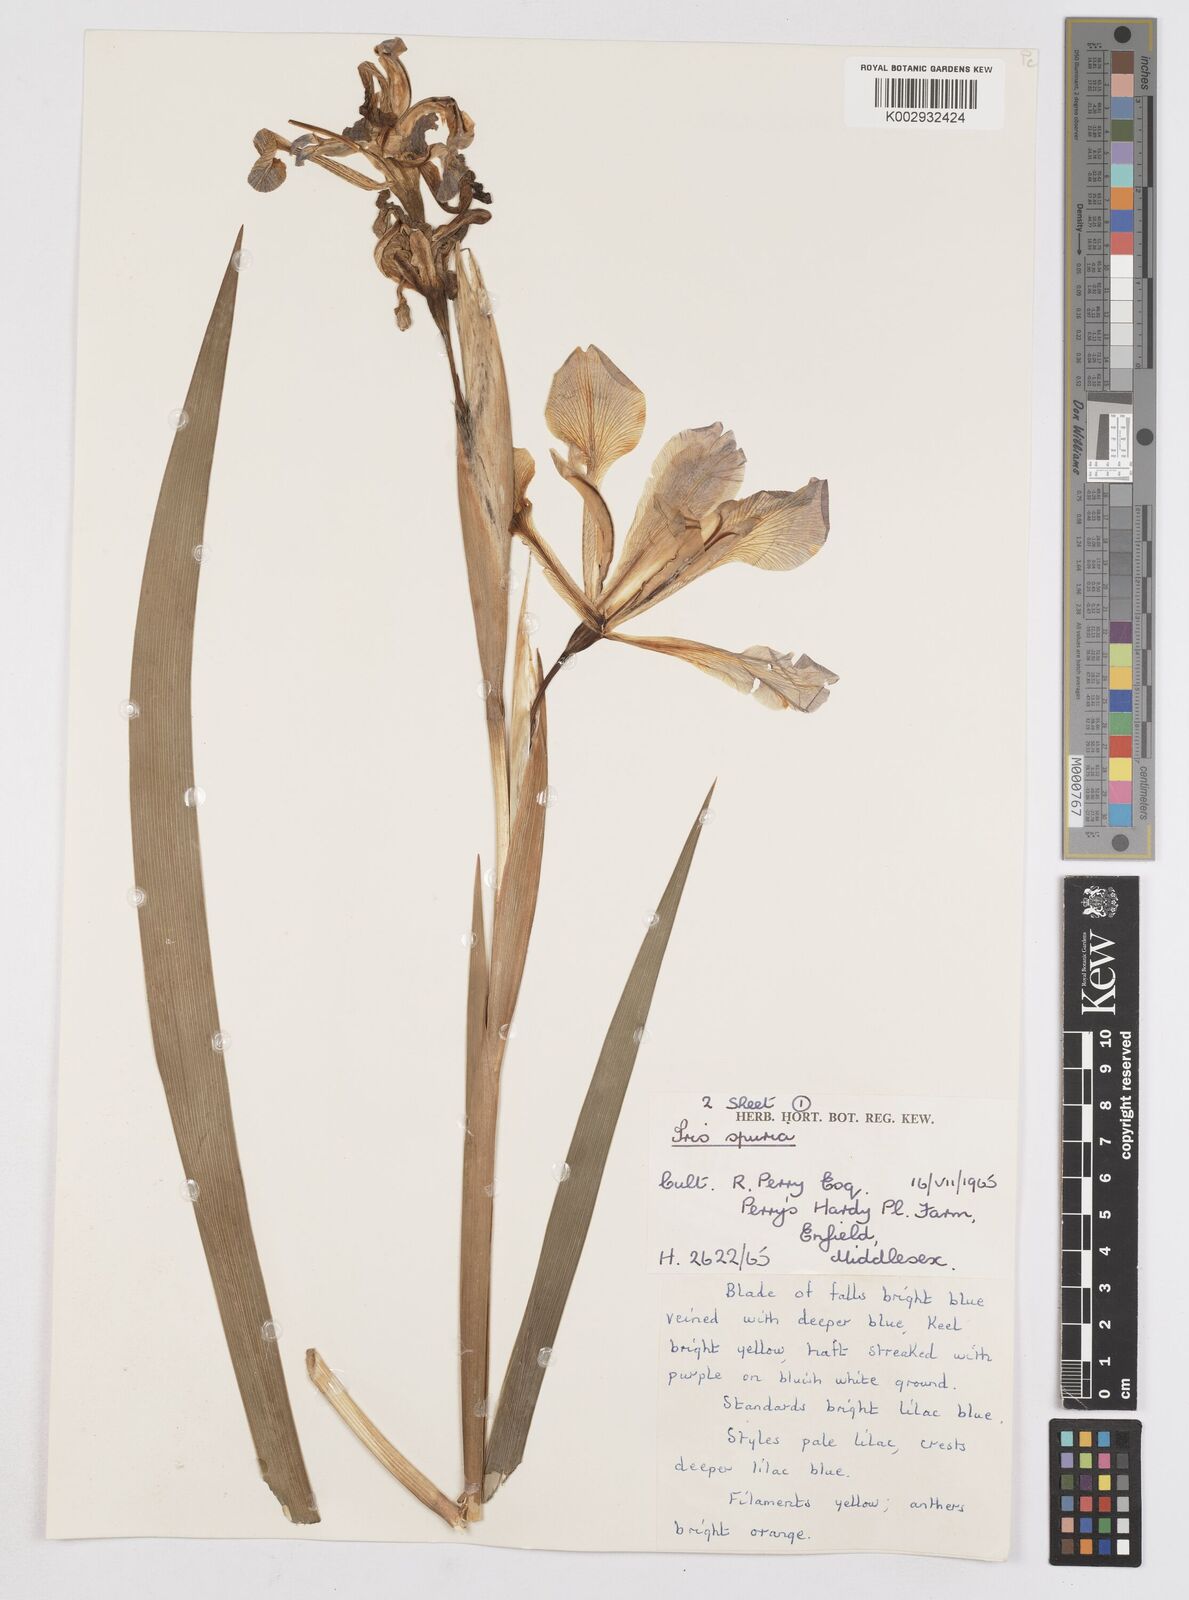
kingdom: Plantae
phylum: Tracheophyta
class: Liliopsida
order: Asparagales
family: Iridaceae
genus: Iris
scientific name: Iris spuria
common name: Blue iris
